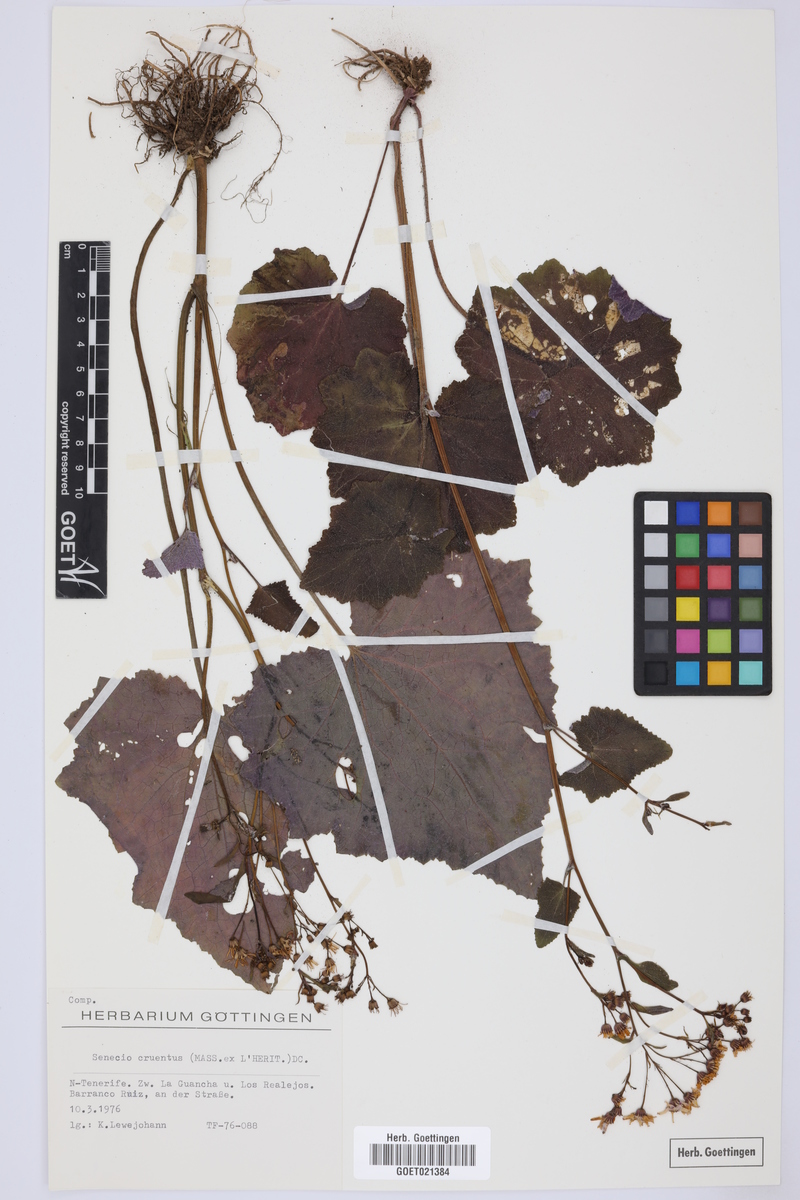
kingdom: Plantae
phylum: Tracheophyta
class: Magnoliopsida
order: Asterales
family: Asteraceae
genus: Pericallis
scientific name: Pericallis cruenta
